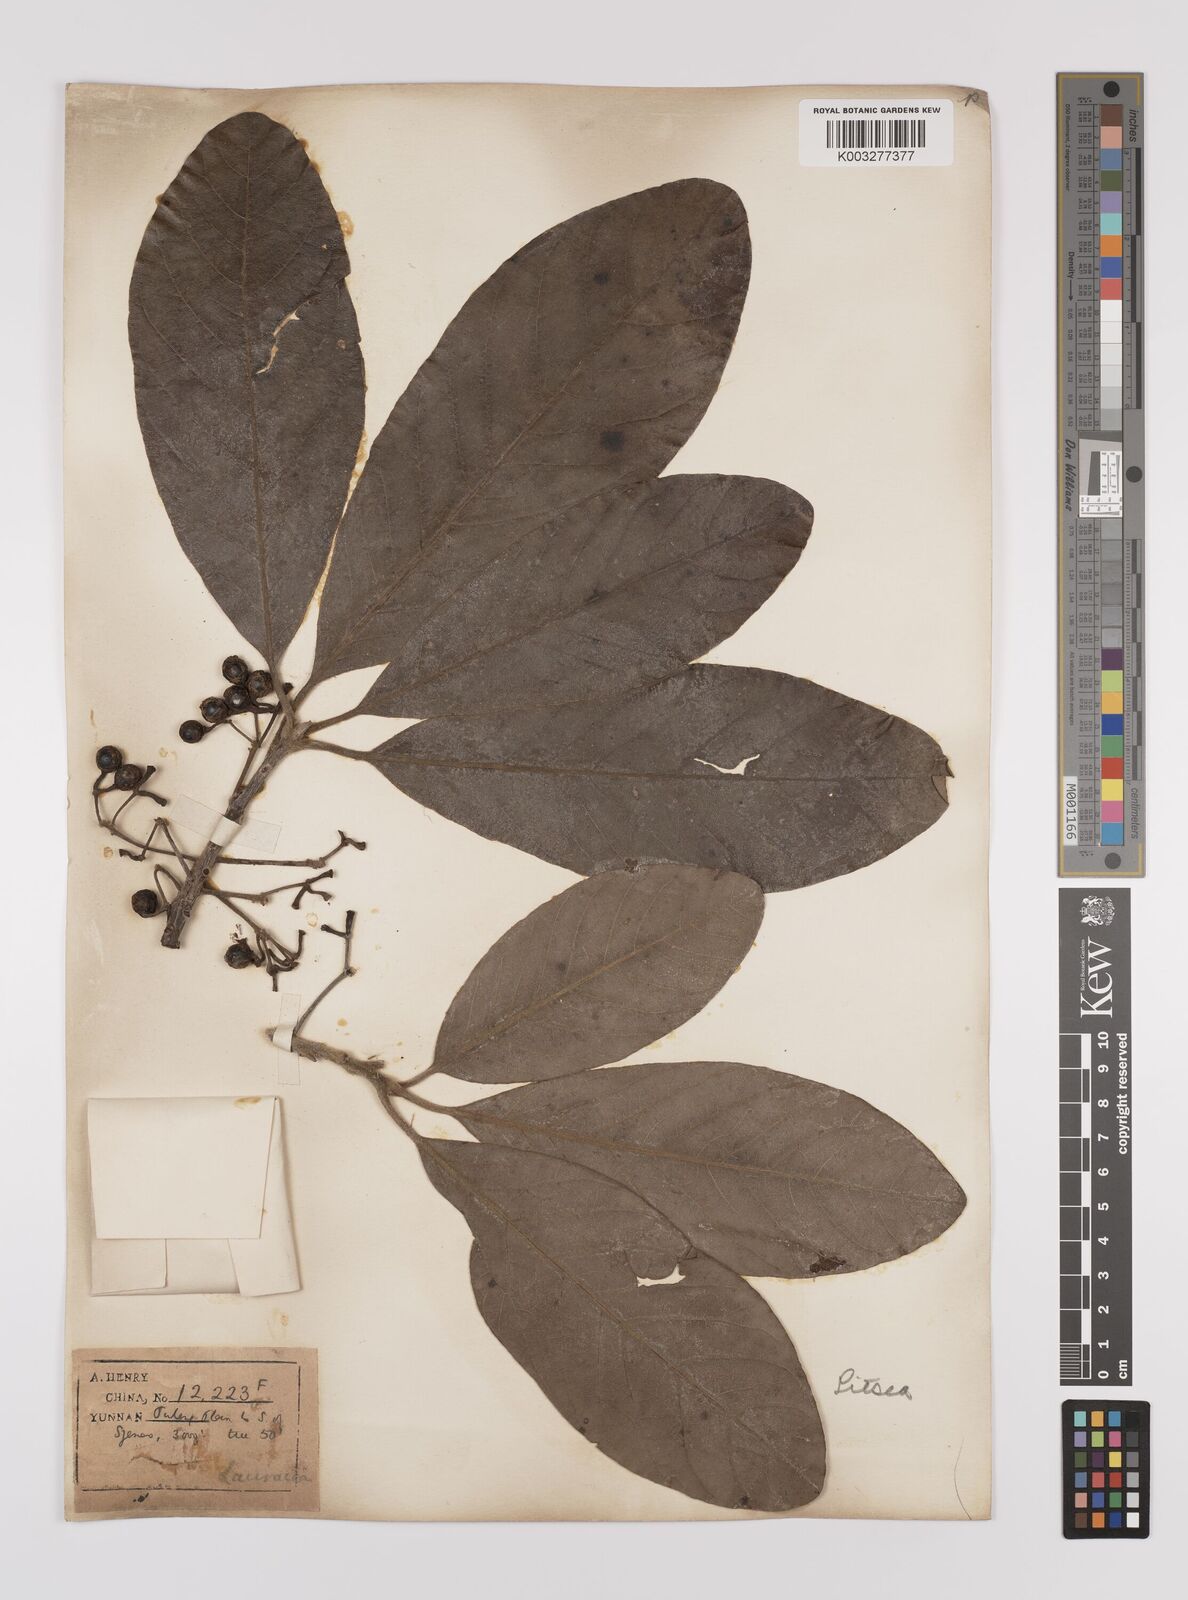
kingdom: Plantae
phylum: Tracheophyta
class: Magnoliopsida
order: Laurales
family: Lauraceae
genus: Litsea
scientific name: Litsea glutinosa
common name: Indian-laurel
